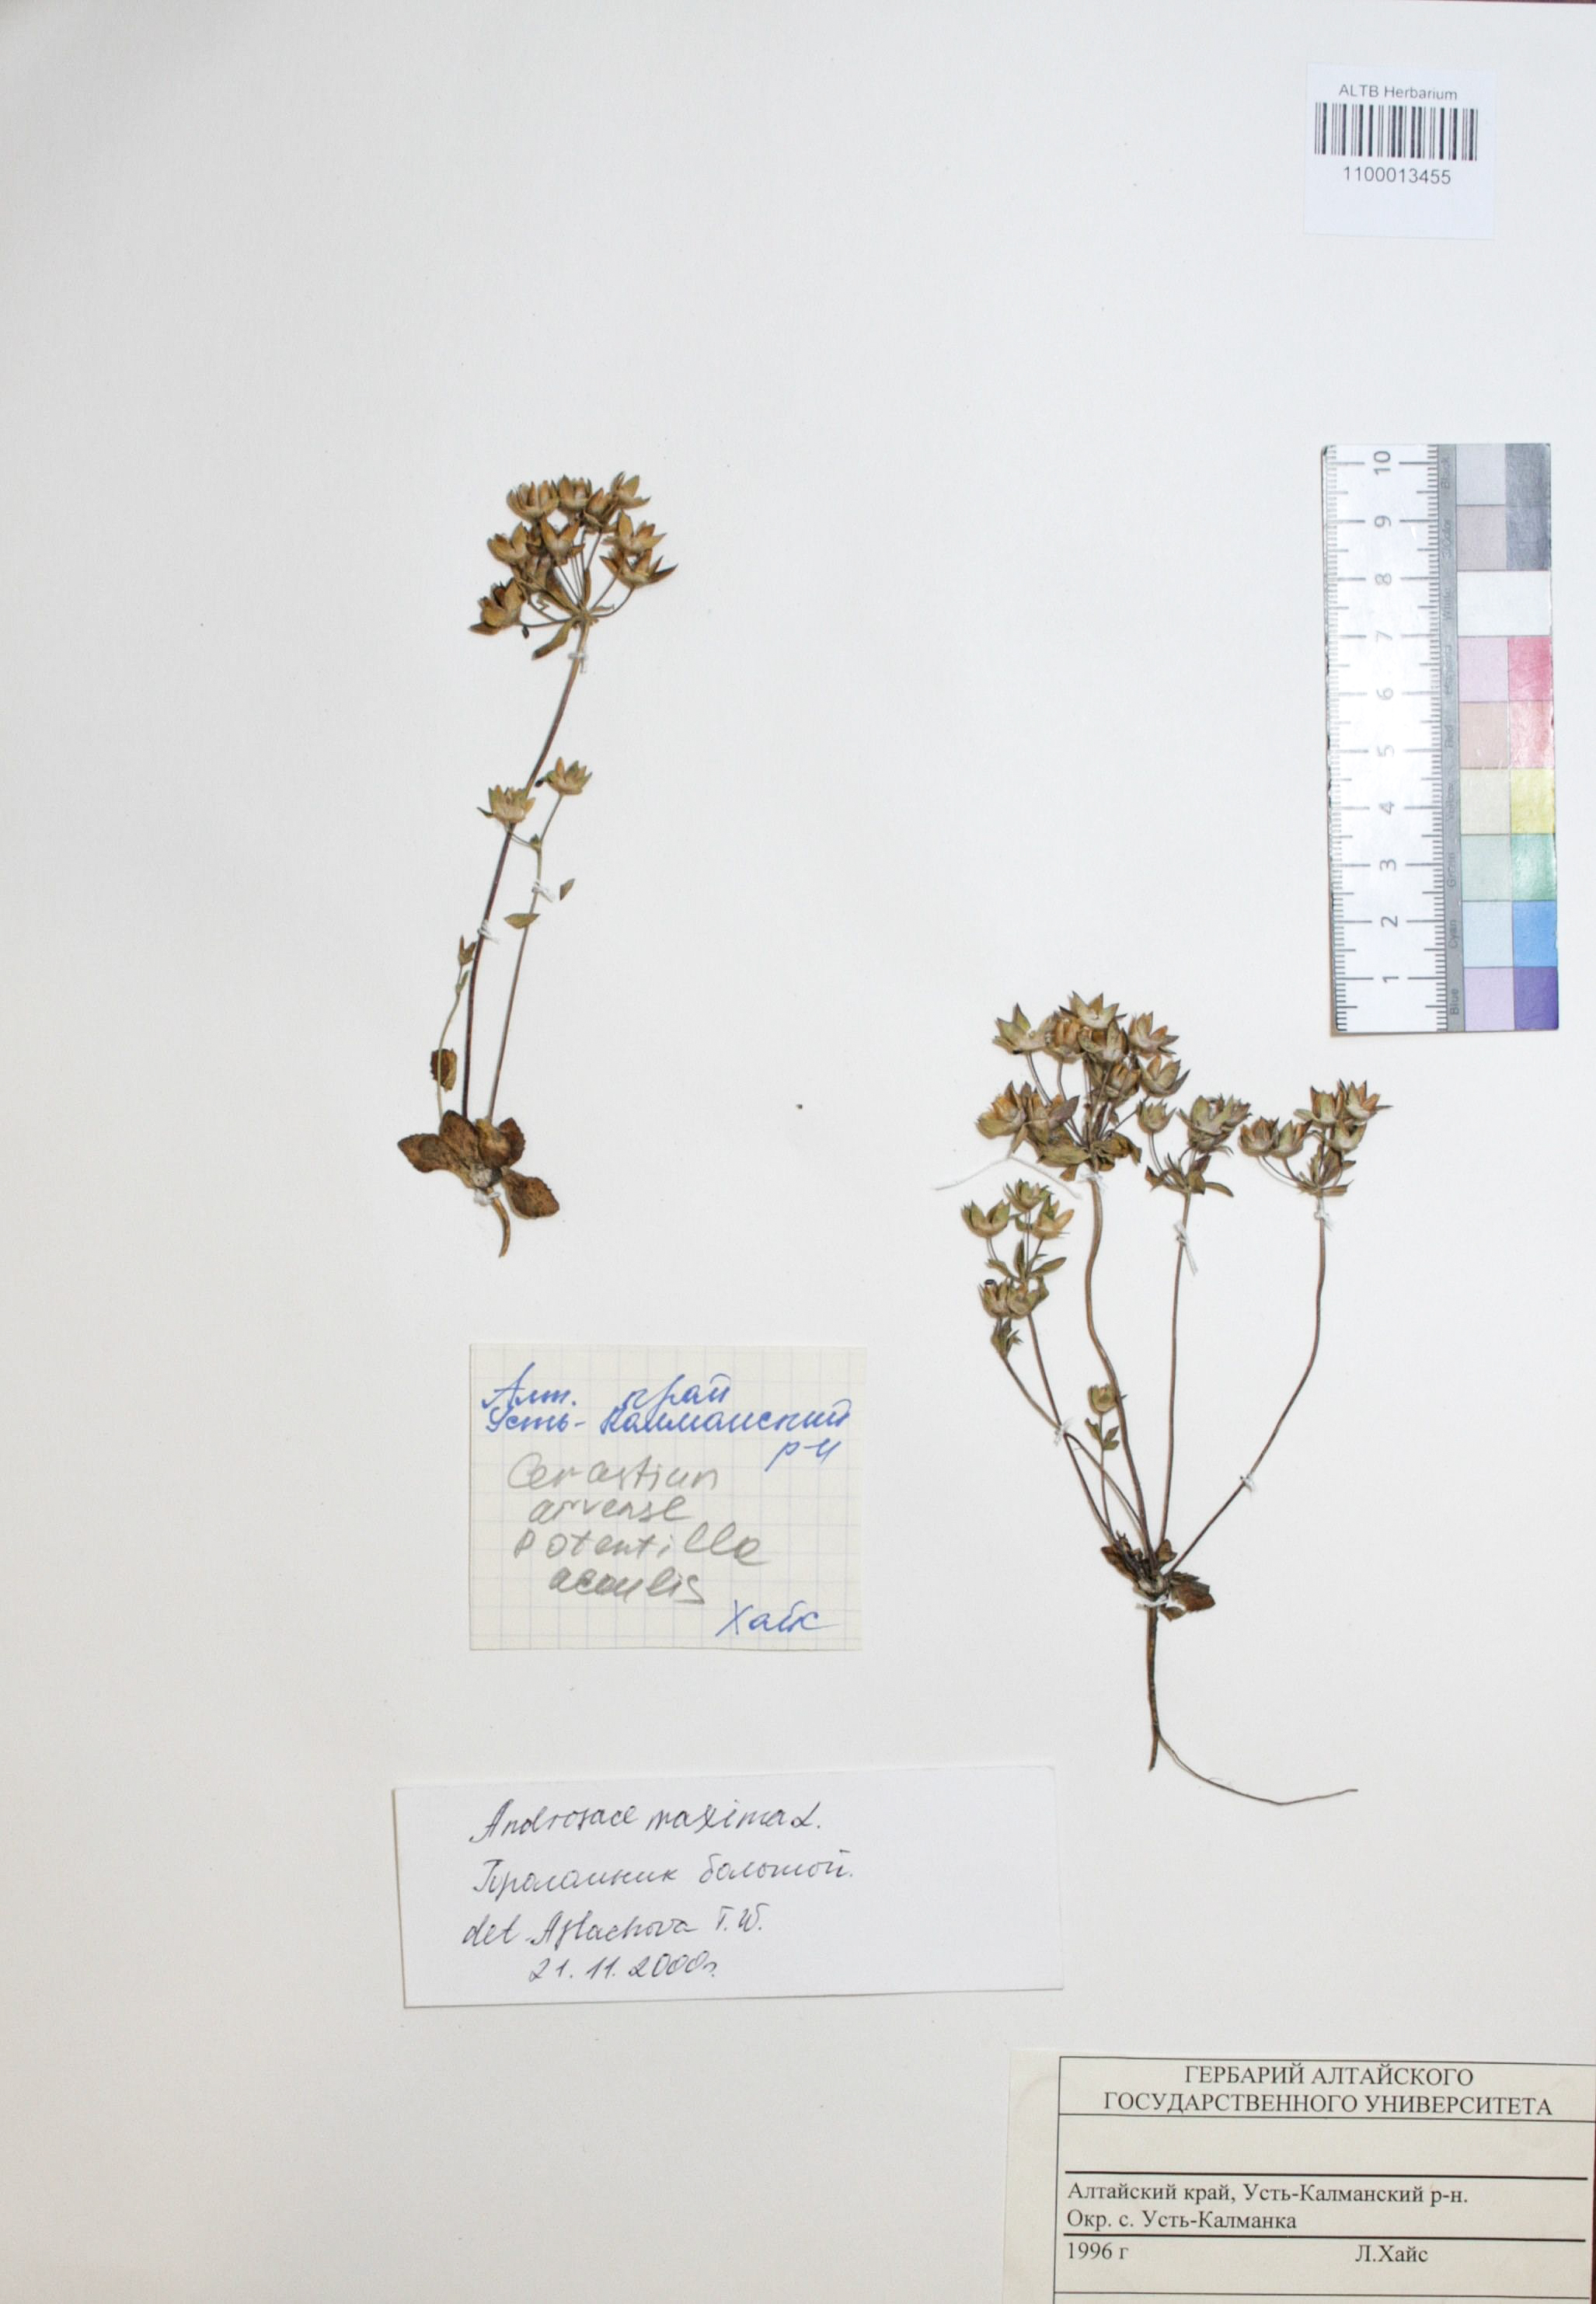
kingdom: Plantae
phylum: Tracheophyta
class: Magnoliopsida
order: Ericales
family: Primulaceae
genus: Androsace
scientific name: Androsace maxima
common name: Annual androsace
